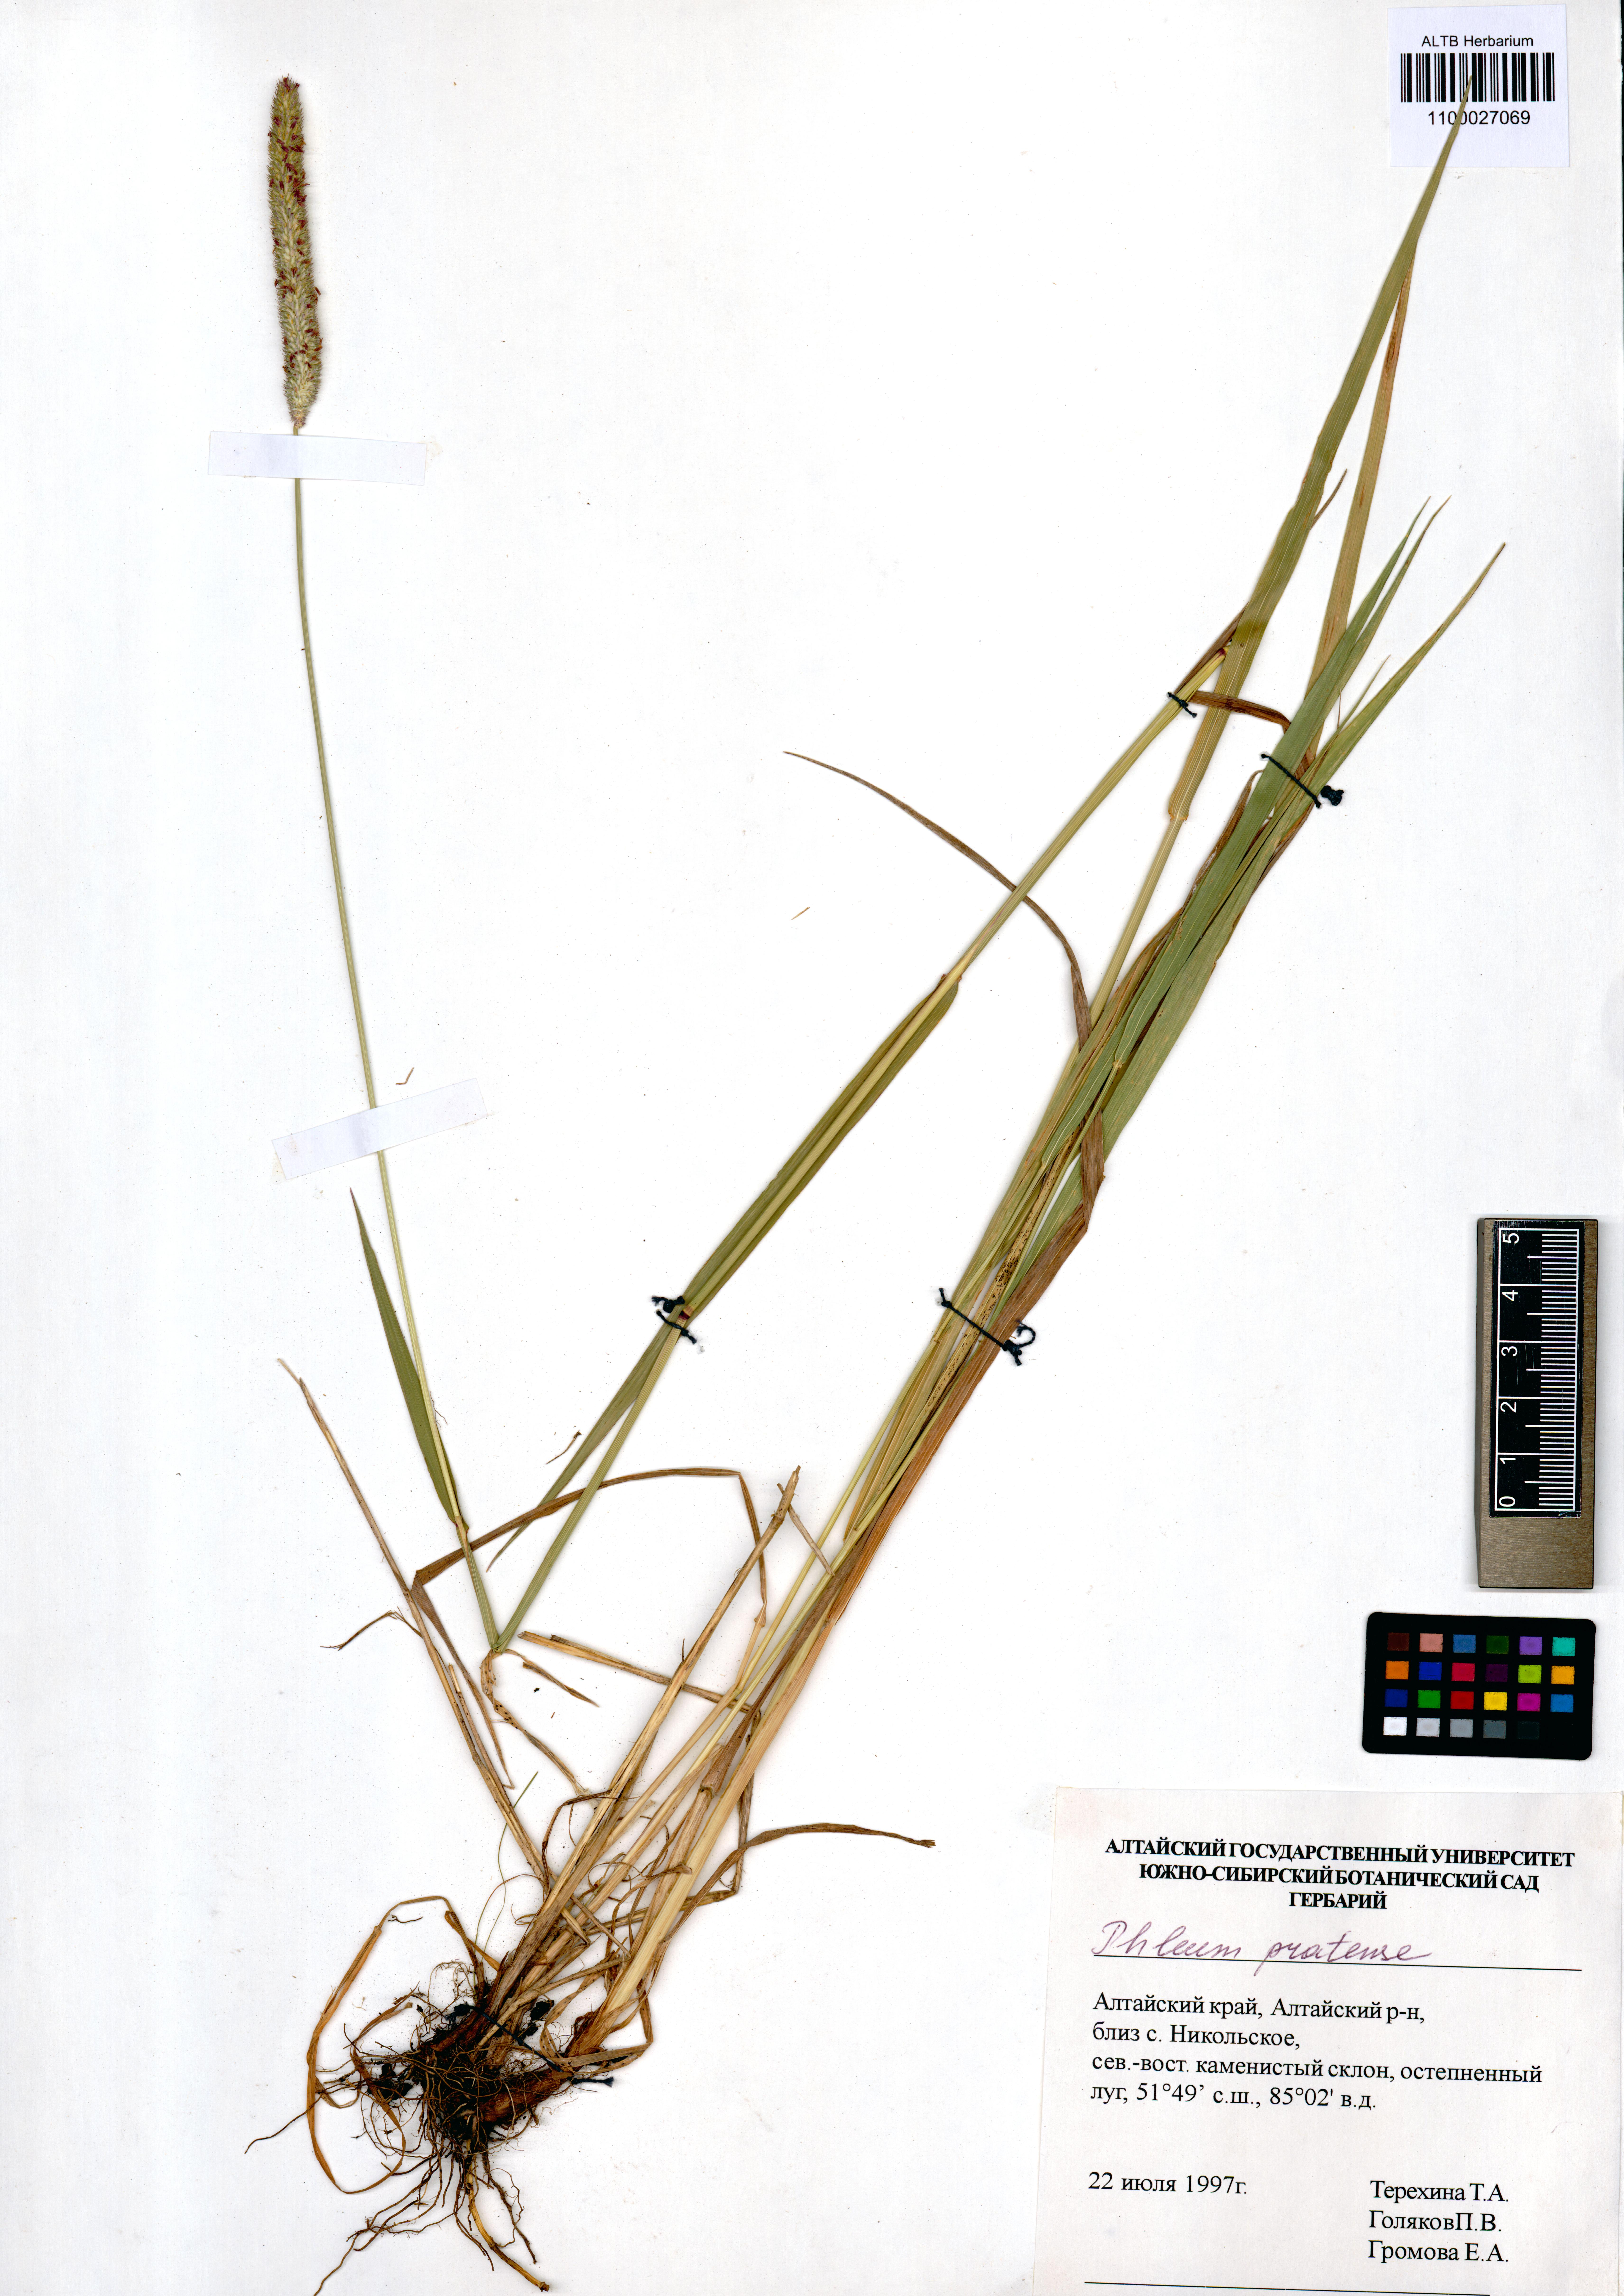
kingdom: Plantae
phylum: Tracheophyta
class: Liliopsida
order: Poales
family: Poaceae
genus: Phleum
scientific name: Phleum pratense
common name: Timothy grass
